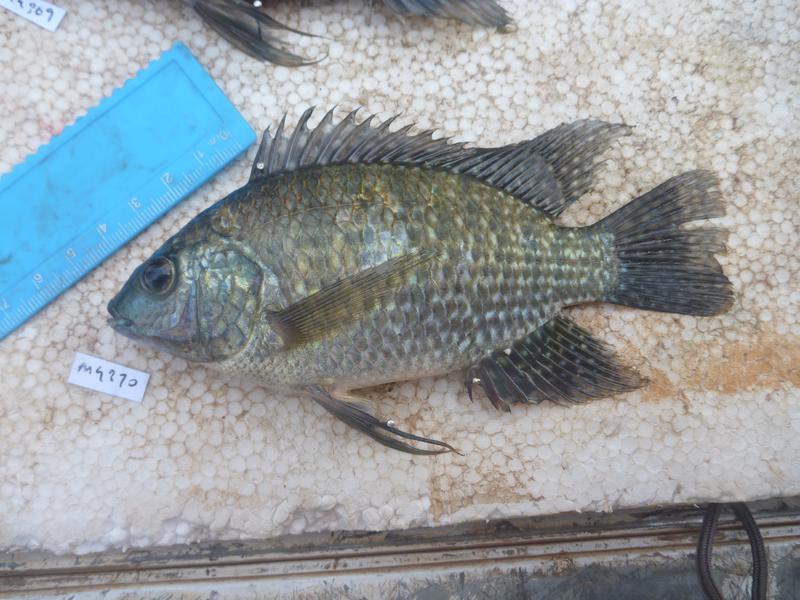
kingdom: Animalia
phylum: Chordata
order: Perciformes
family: Cichlidae
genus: Oreochromis
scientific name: Oreochromis leucostictus
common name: Blue spotted tilapia
